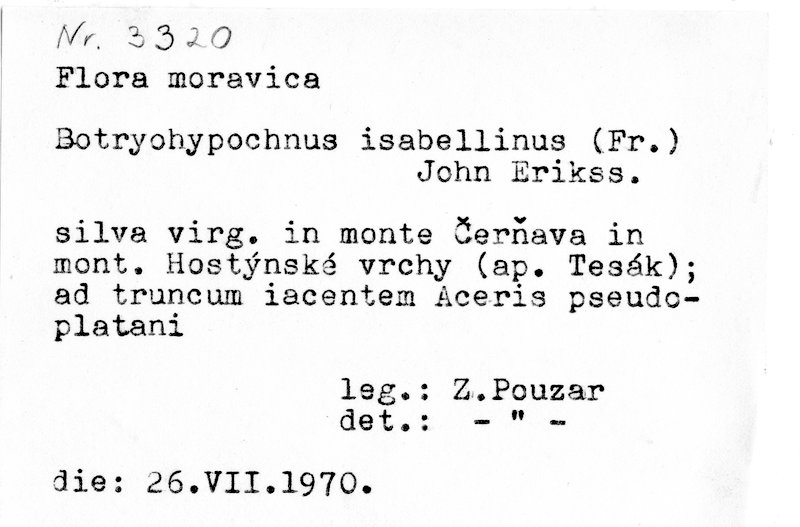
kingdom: Fungi
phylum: Basidiomycota
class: Agaricomycetes
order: Cantharellales
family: Botryobasidiaceae
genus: Botryobasidium
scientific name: Botryobasidium isabellinum
